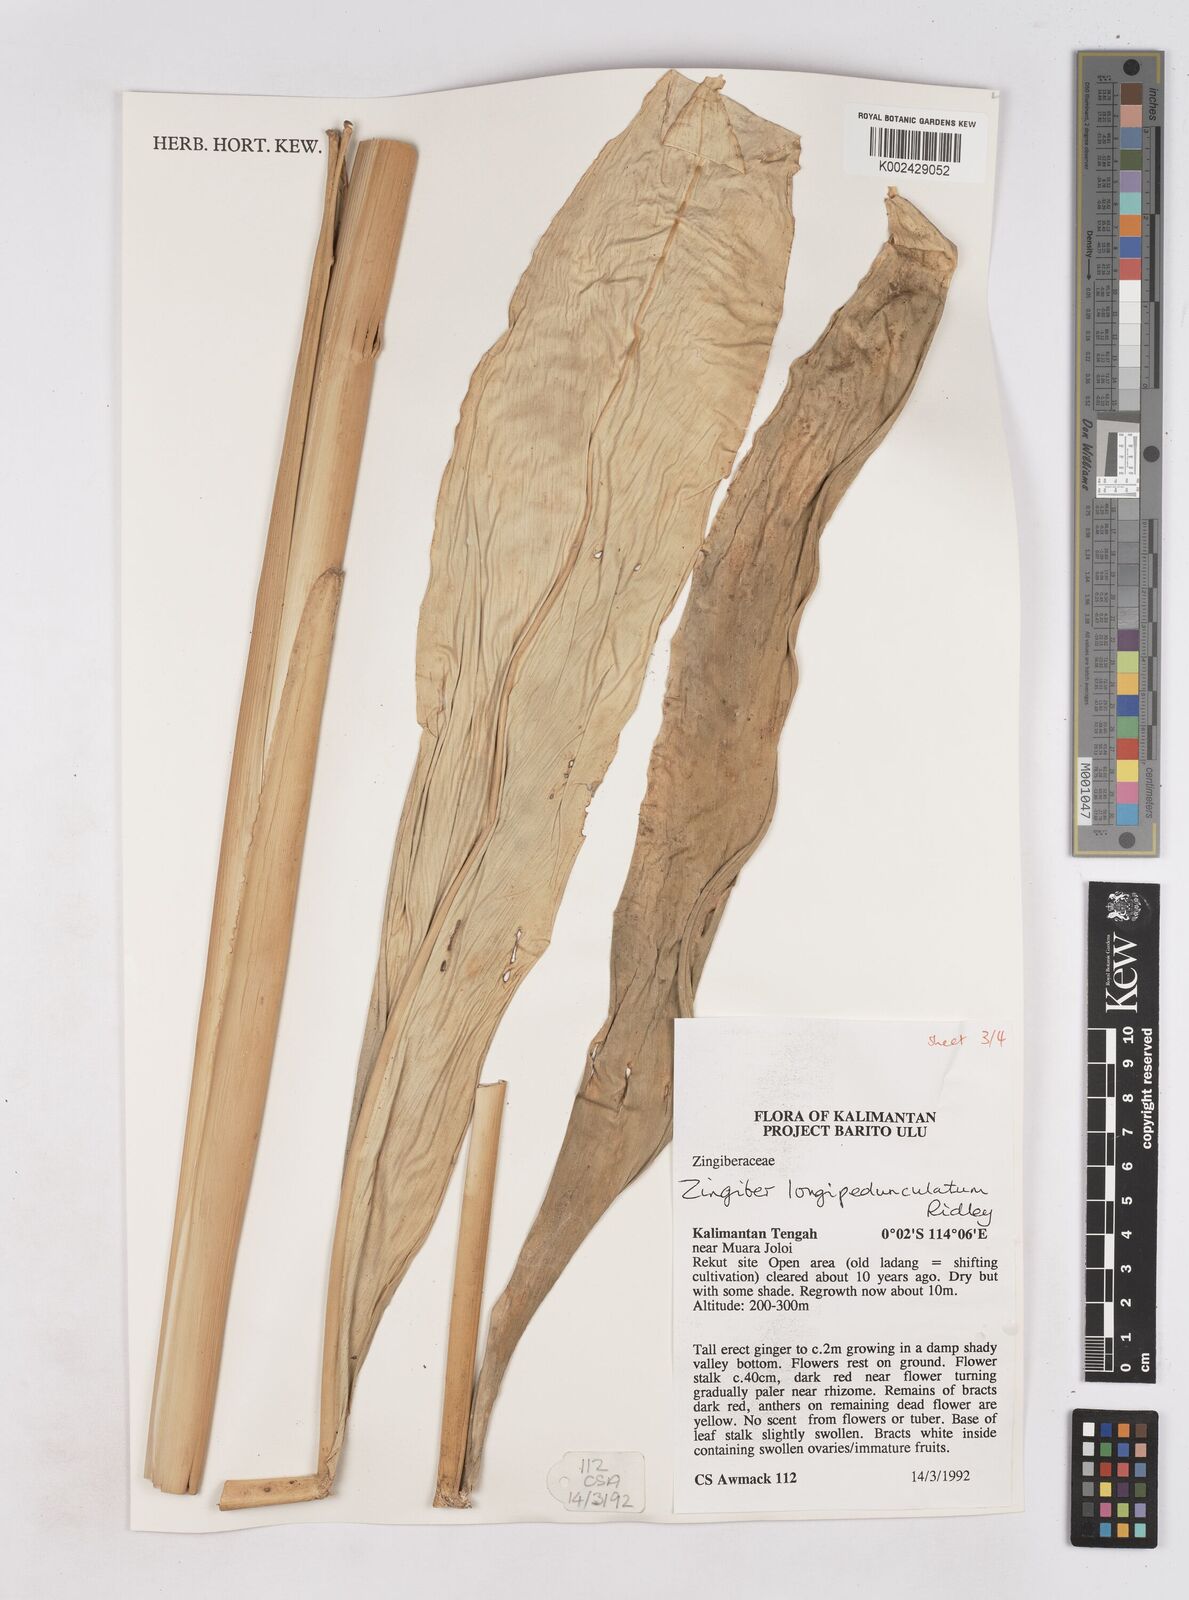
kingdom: Plantae
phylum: Tracheophyta
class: Liliopsida
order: Zingiberales
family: Zingiberaceae
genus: Zingiber
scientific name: Zingiber longipedunculatum
